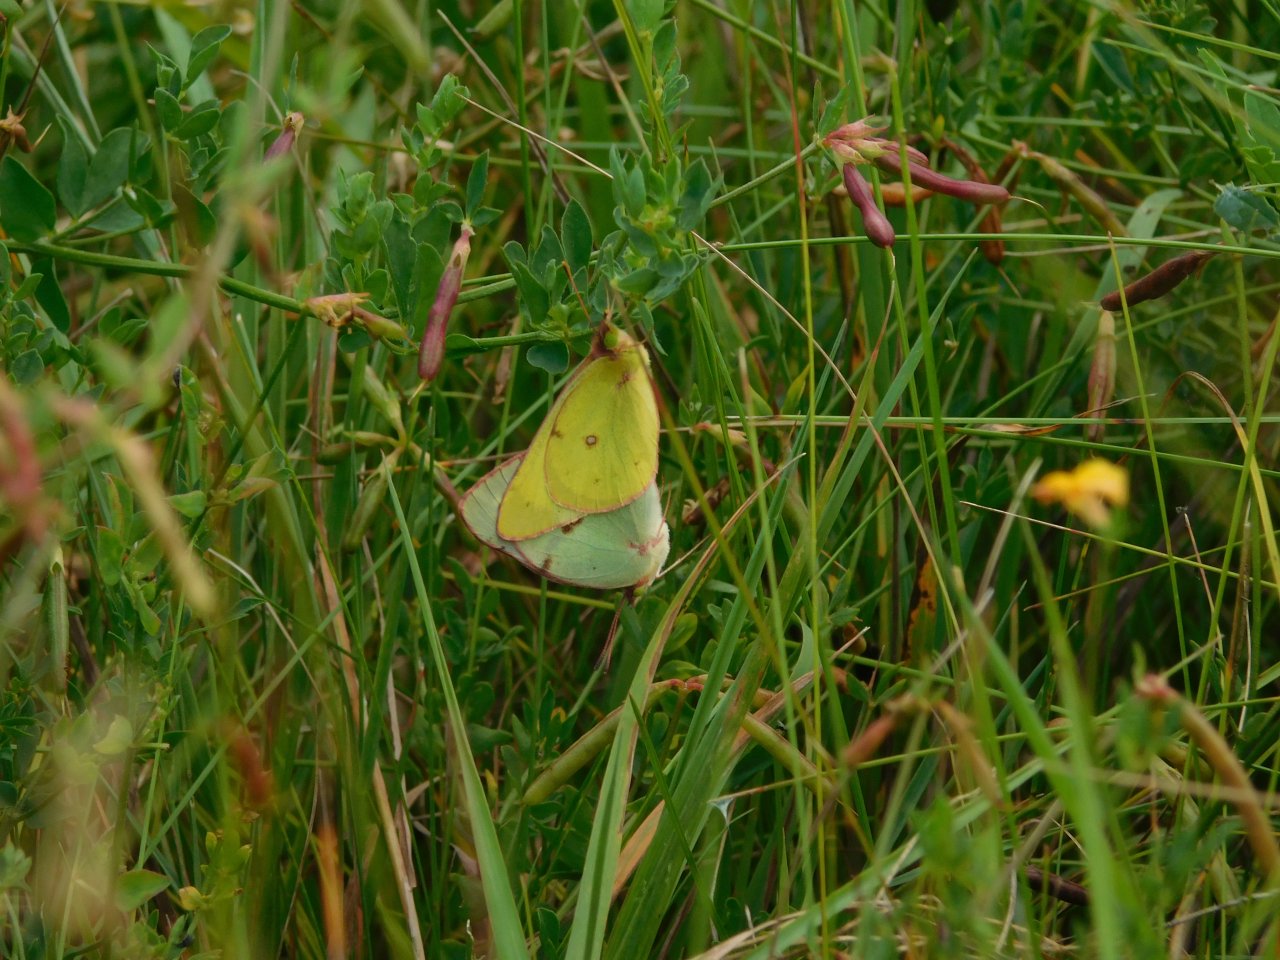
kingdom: Animalia
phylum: Arthropoda
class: Insecta
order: Lepidoptera
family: Pieridae
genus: Colias
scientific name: Colias philodice
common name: Clouded Sulphur
